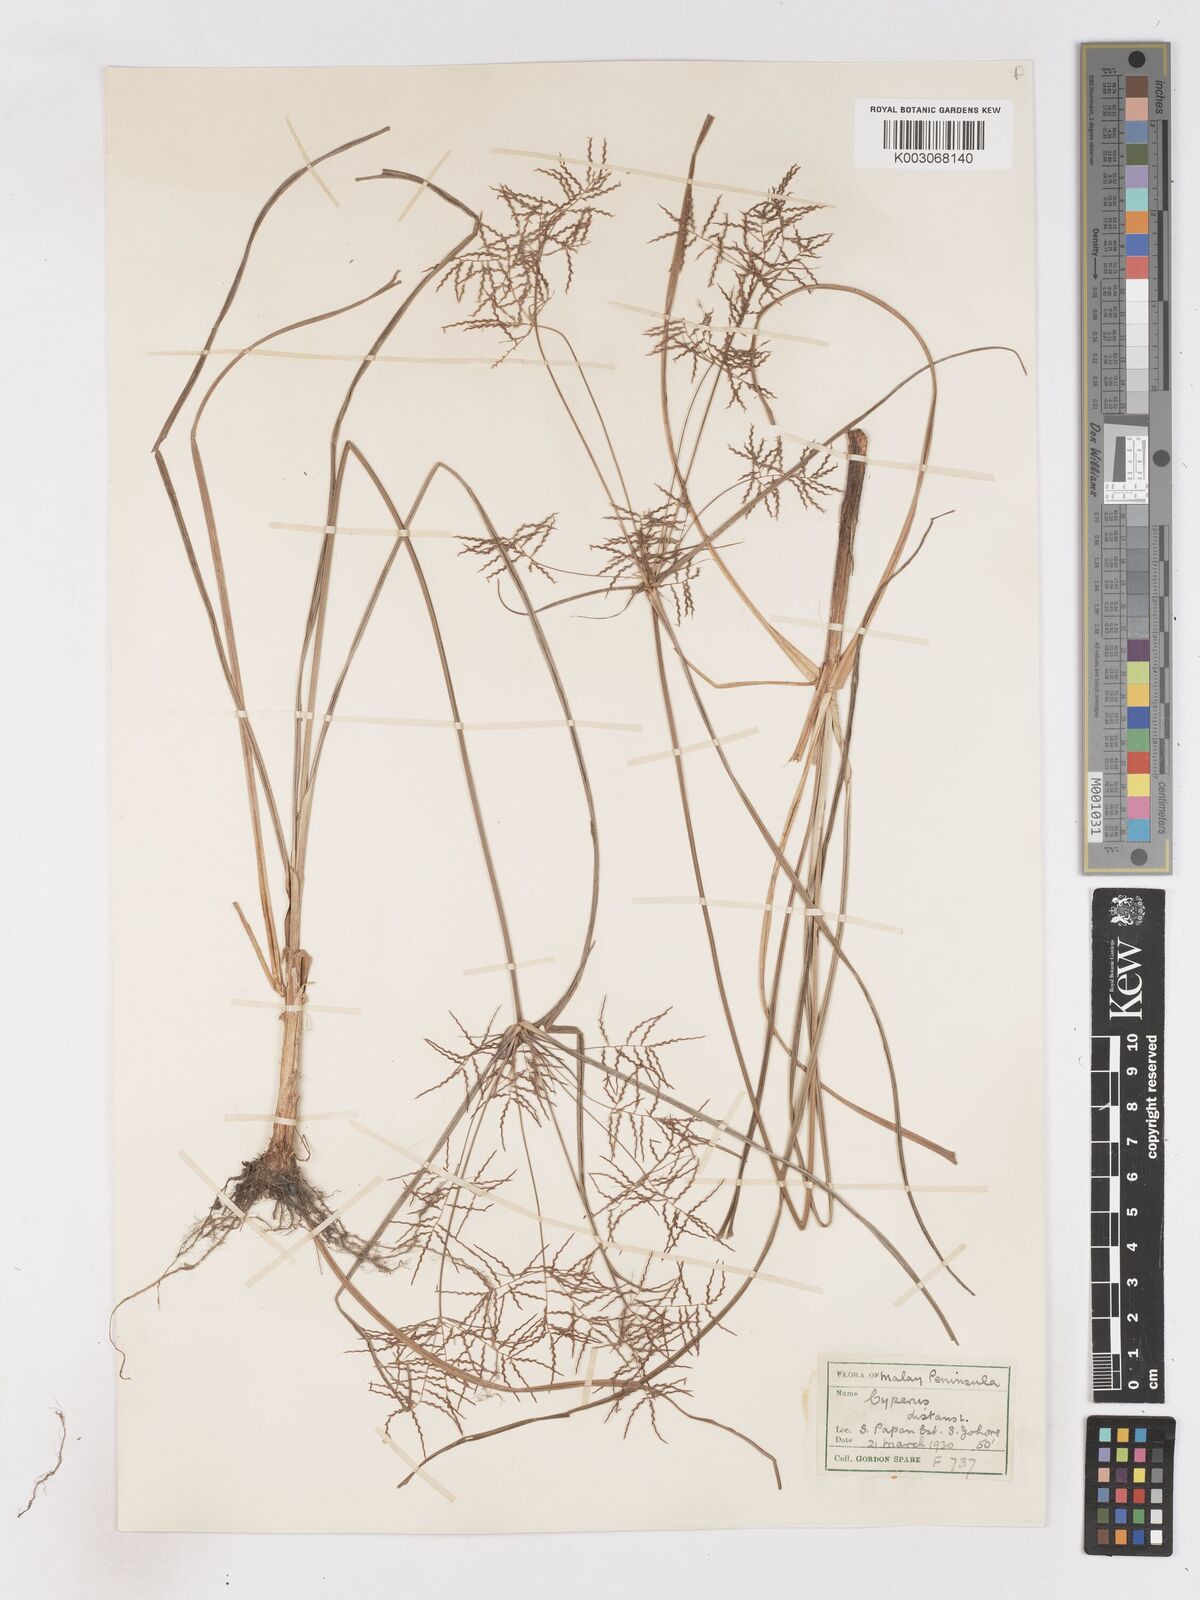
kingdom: Plantae
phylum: Tracheophyta
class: Liliopsida
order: Poales
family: Cyperaceae
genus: Cyperus
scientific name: Cyperus distans
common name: Slender cyperus
